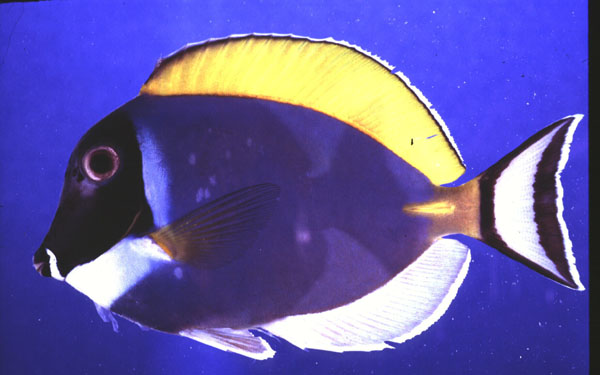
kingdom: Animalia
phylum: Chordata
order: Perciformes
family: Acanthuridae
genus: Acanthurus
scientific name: Acanthurus leucosternon
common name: Blue surgeonfish
